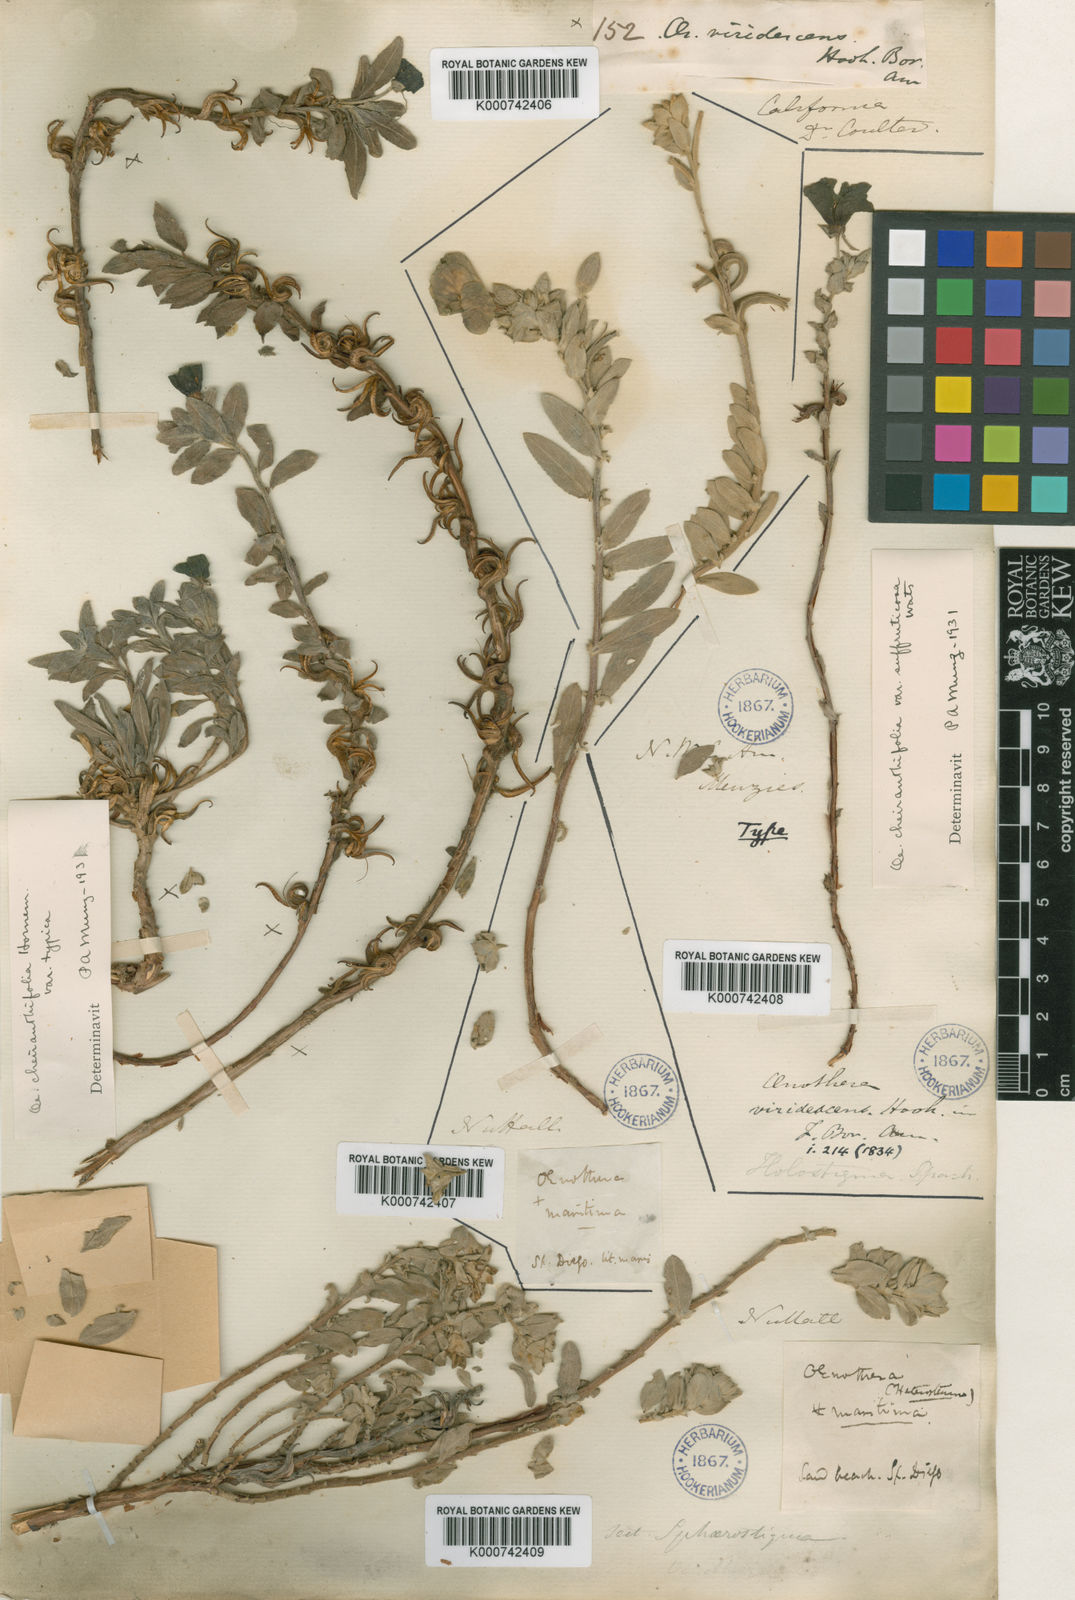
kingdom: Plantae
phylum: Tracheophyta
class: Magnoliopsida
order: Myrtales
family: Onagraceae
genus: Camissoniopsis
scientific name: Camissoniopsis cheiranthifolia
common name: Beach suncup
